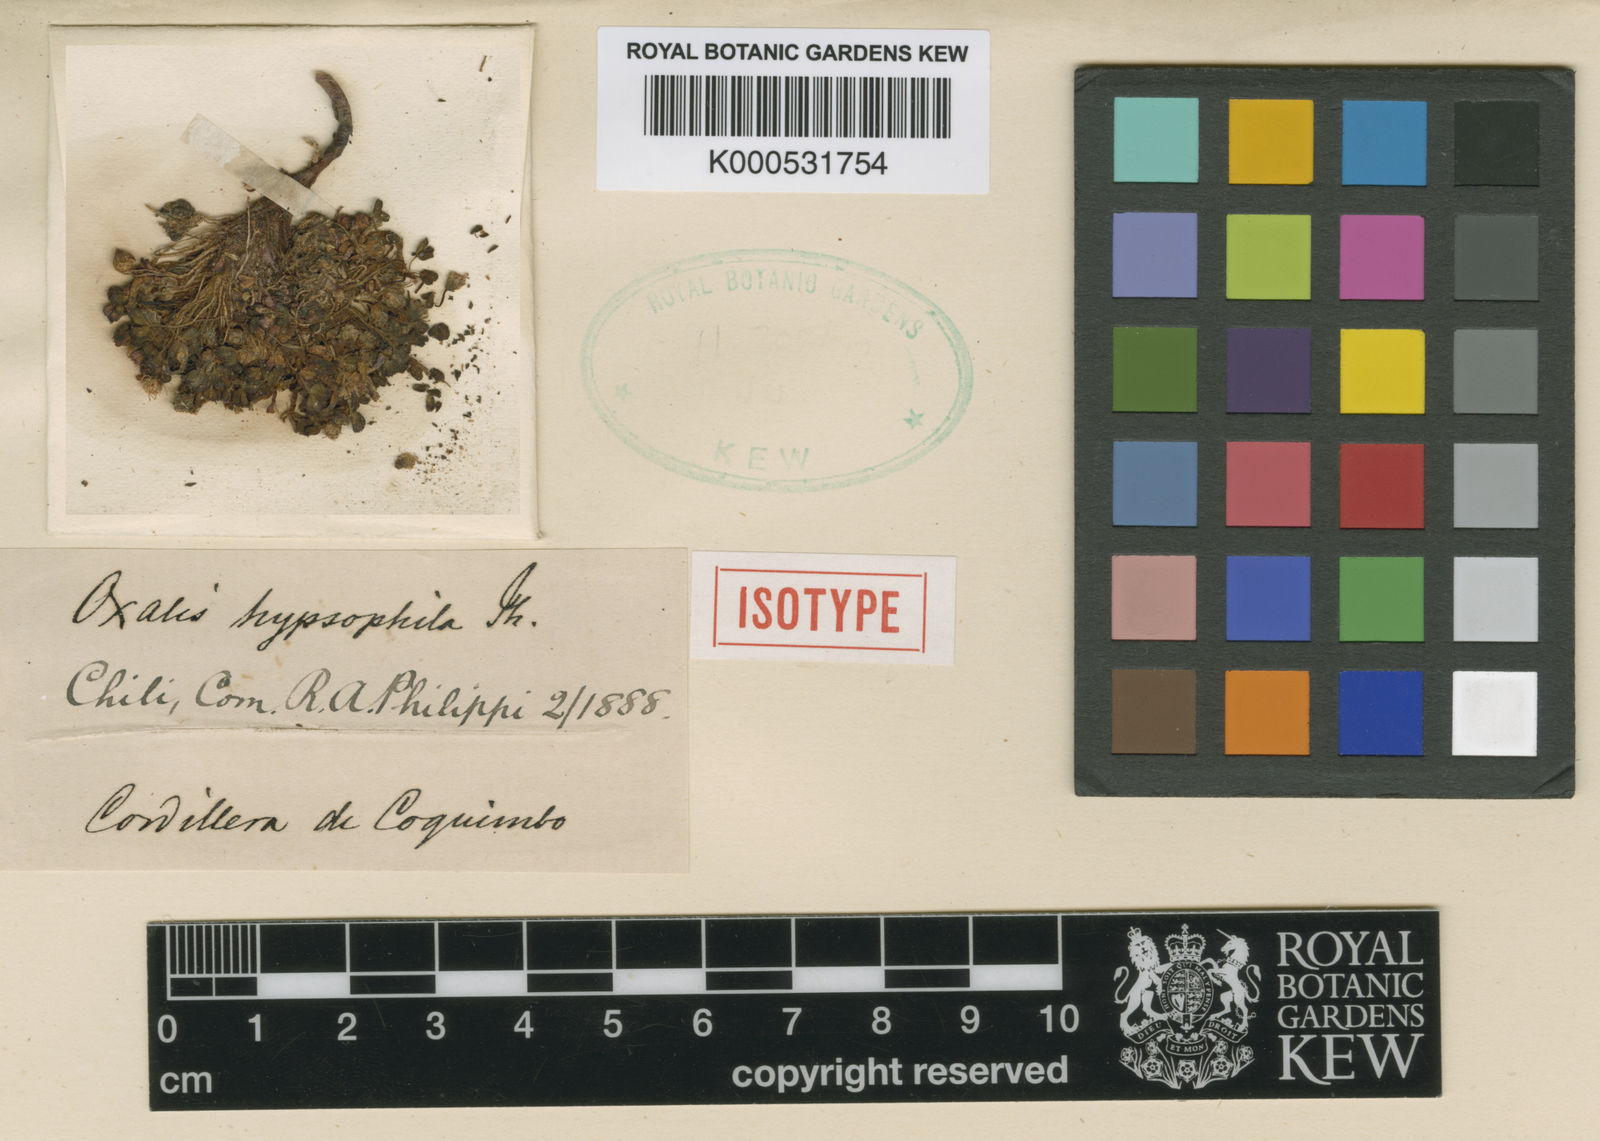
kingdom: Plantae
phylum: Tracheophyta
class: Magnoliopsida
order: Oxalidales
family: Oxalidaceae
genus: Oxalis
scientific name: Oxalis hypsophila
